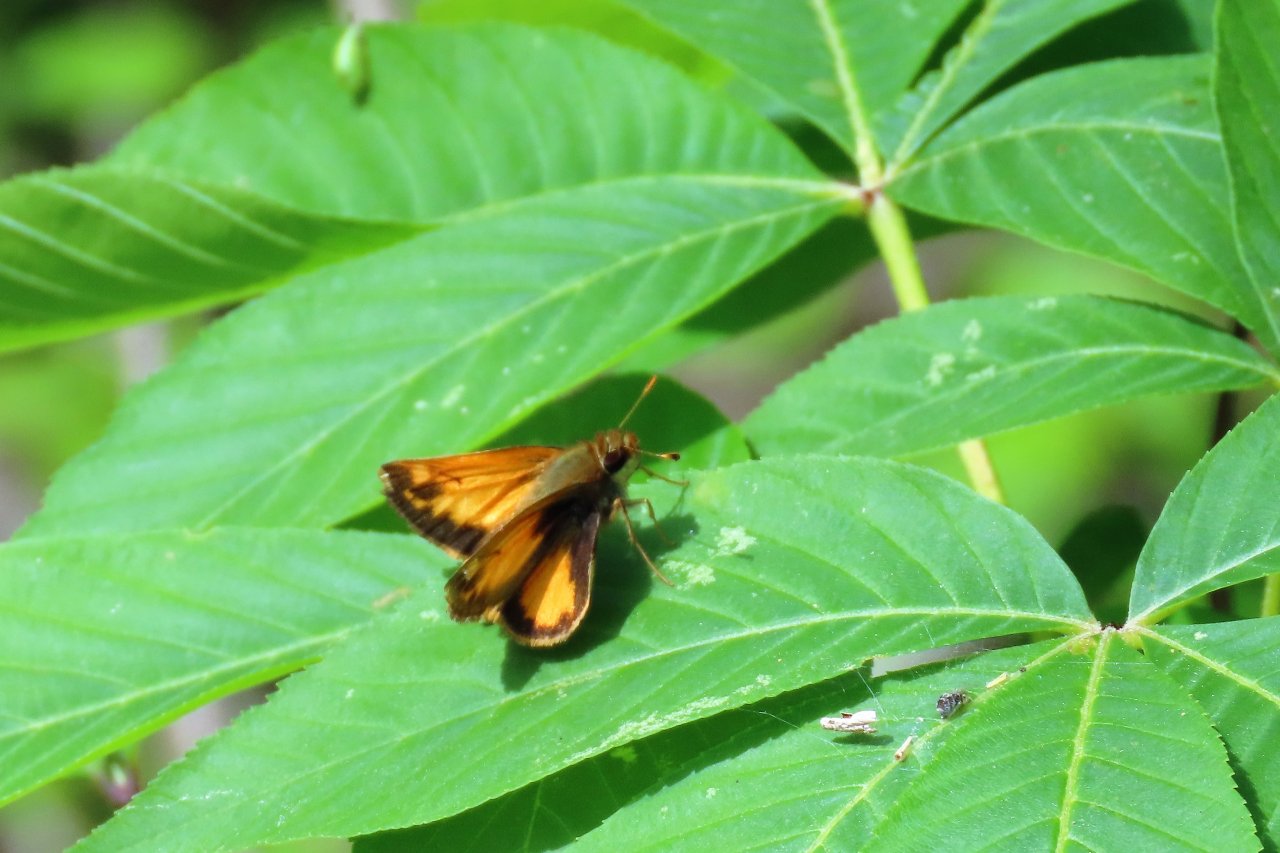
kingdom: Animalia
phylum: Arthropoda
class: Insecta
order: Lepidoptera
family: Hesperiidae
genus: Lon
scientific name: Lon zabulon
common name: Zabulon Skipper
